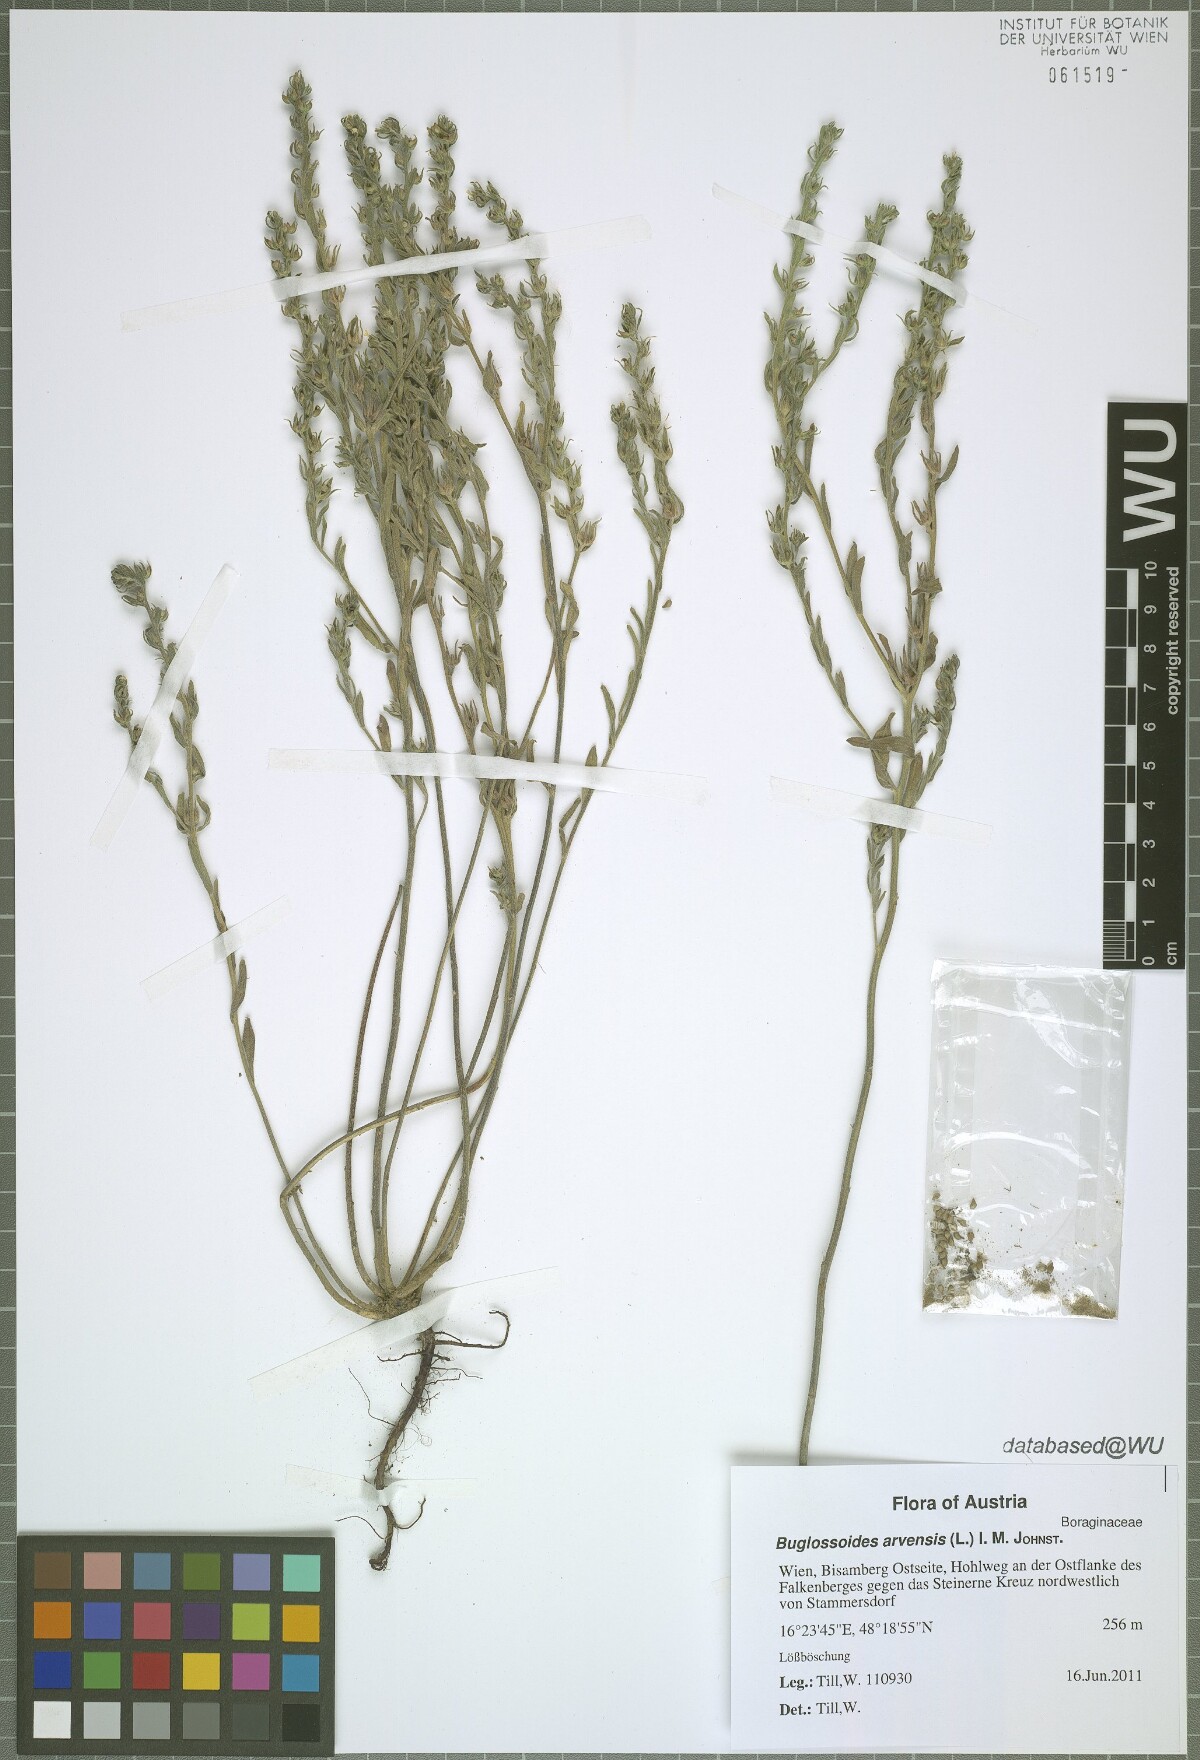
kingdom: Plantae
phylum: Tracheophyta
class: Magnoliopsida
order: Boraginales
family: Boraginaceae
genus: Buglossoides
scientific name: Buglossoides arvensis
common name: Corn gromwell
